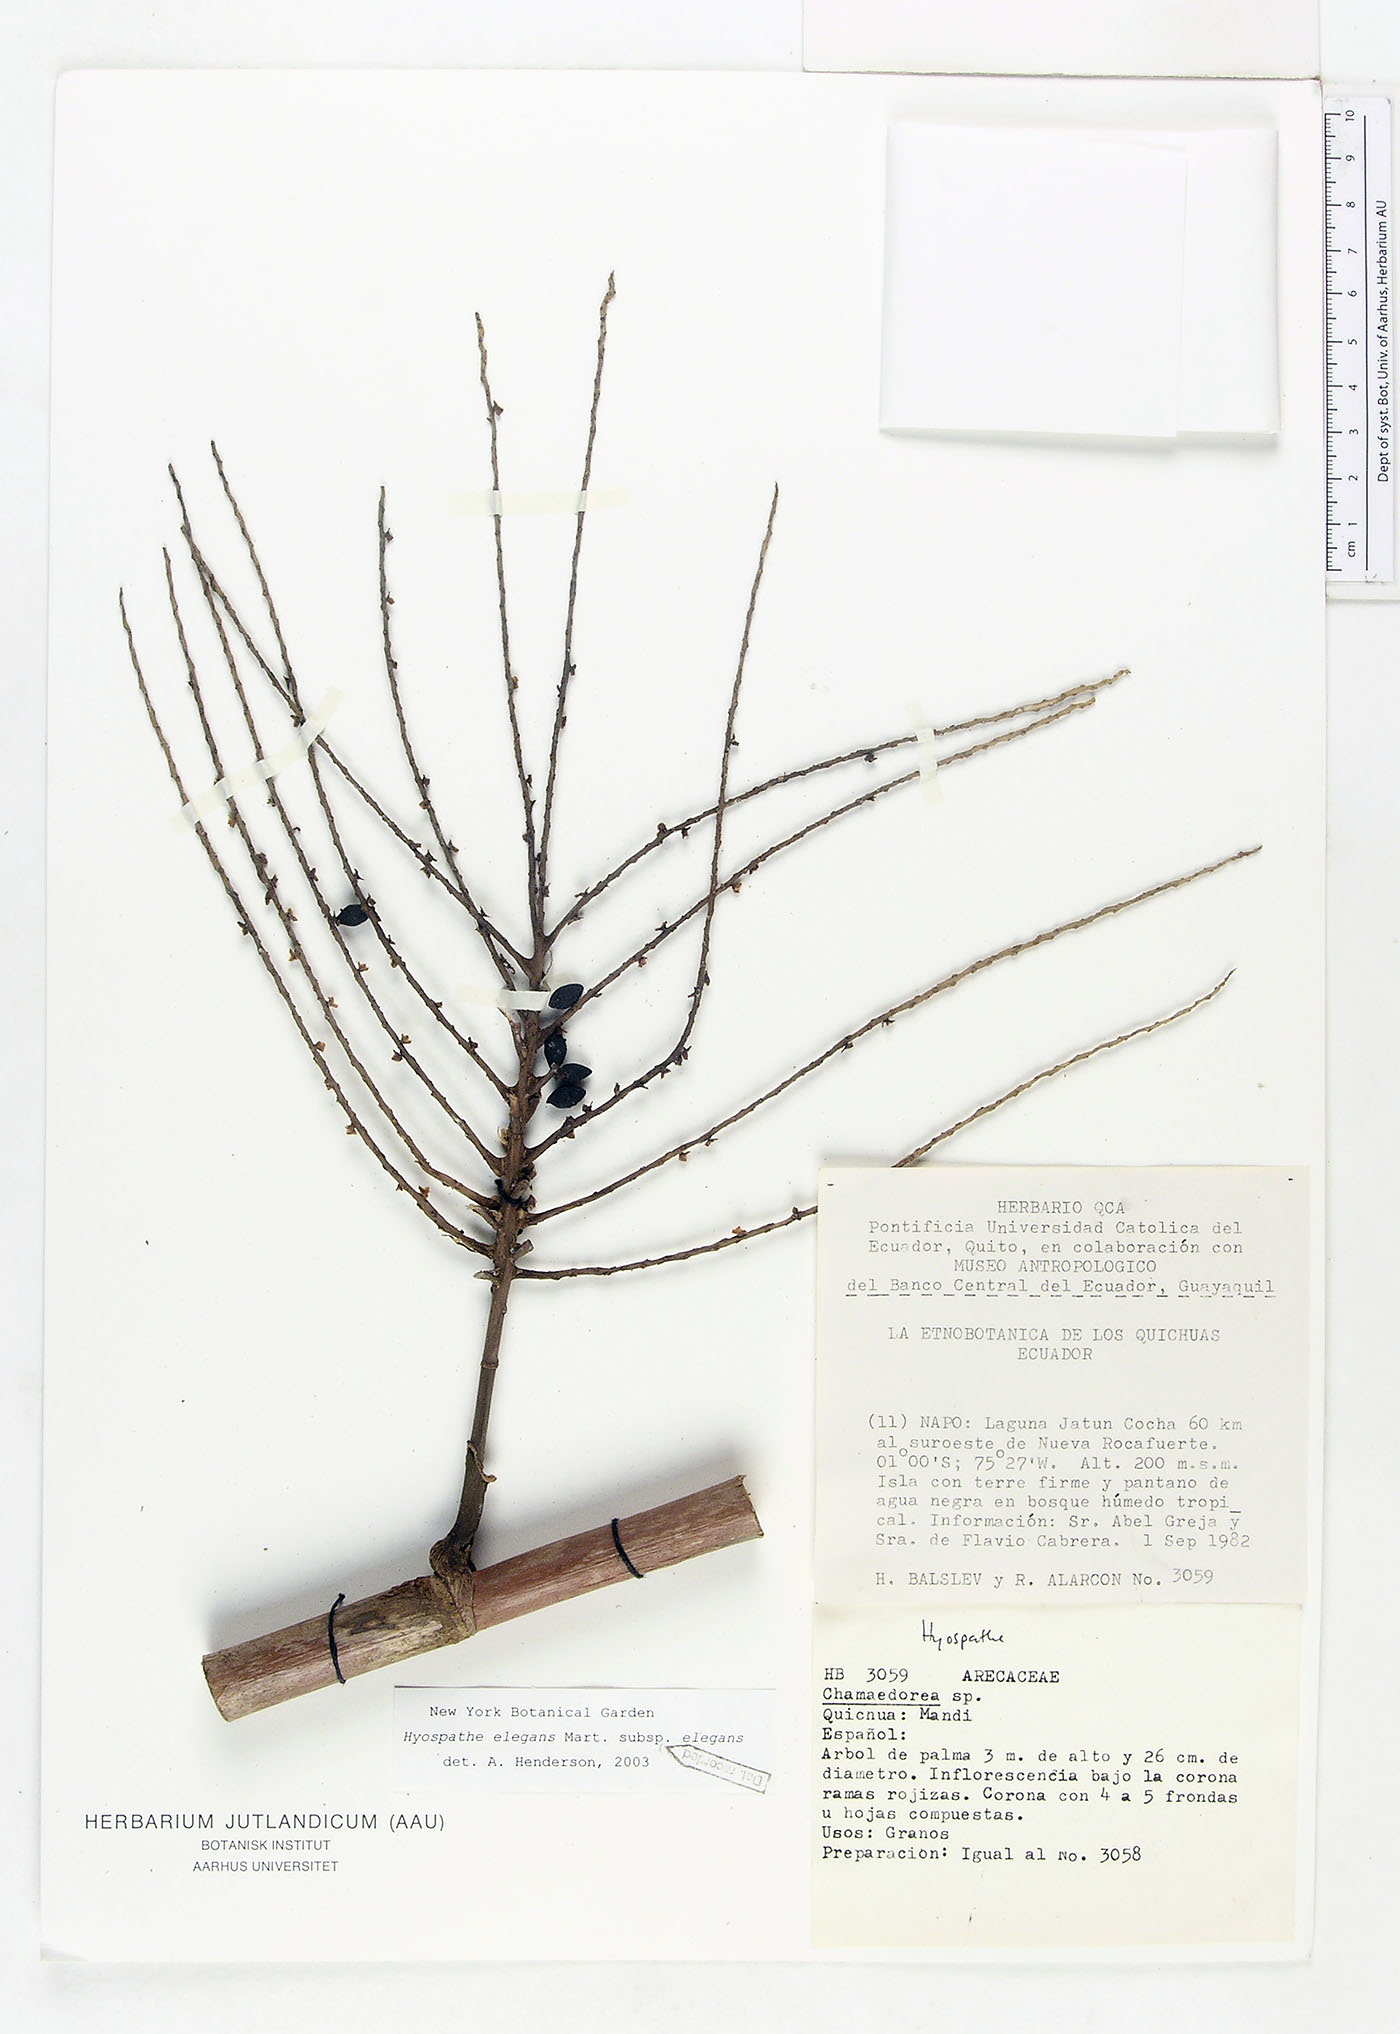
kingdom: Plantae
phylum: Tracheophyta
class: Liliopsida
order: Arecales
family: Arecaceae
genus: Hyospathe
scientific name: Hyospathe elegans
